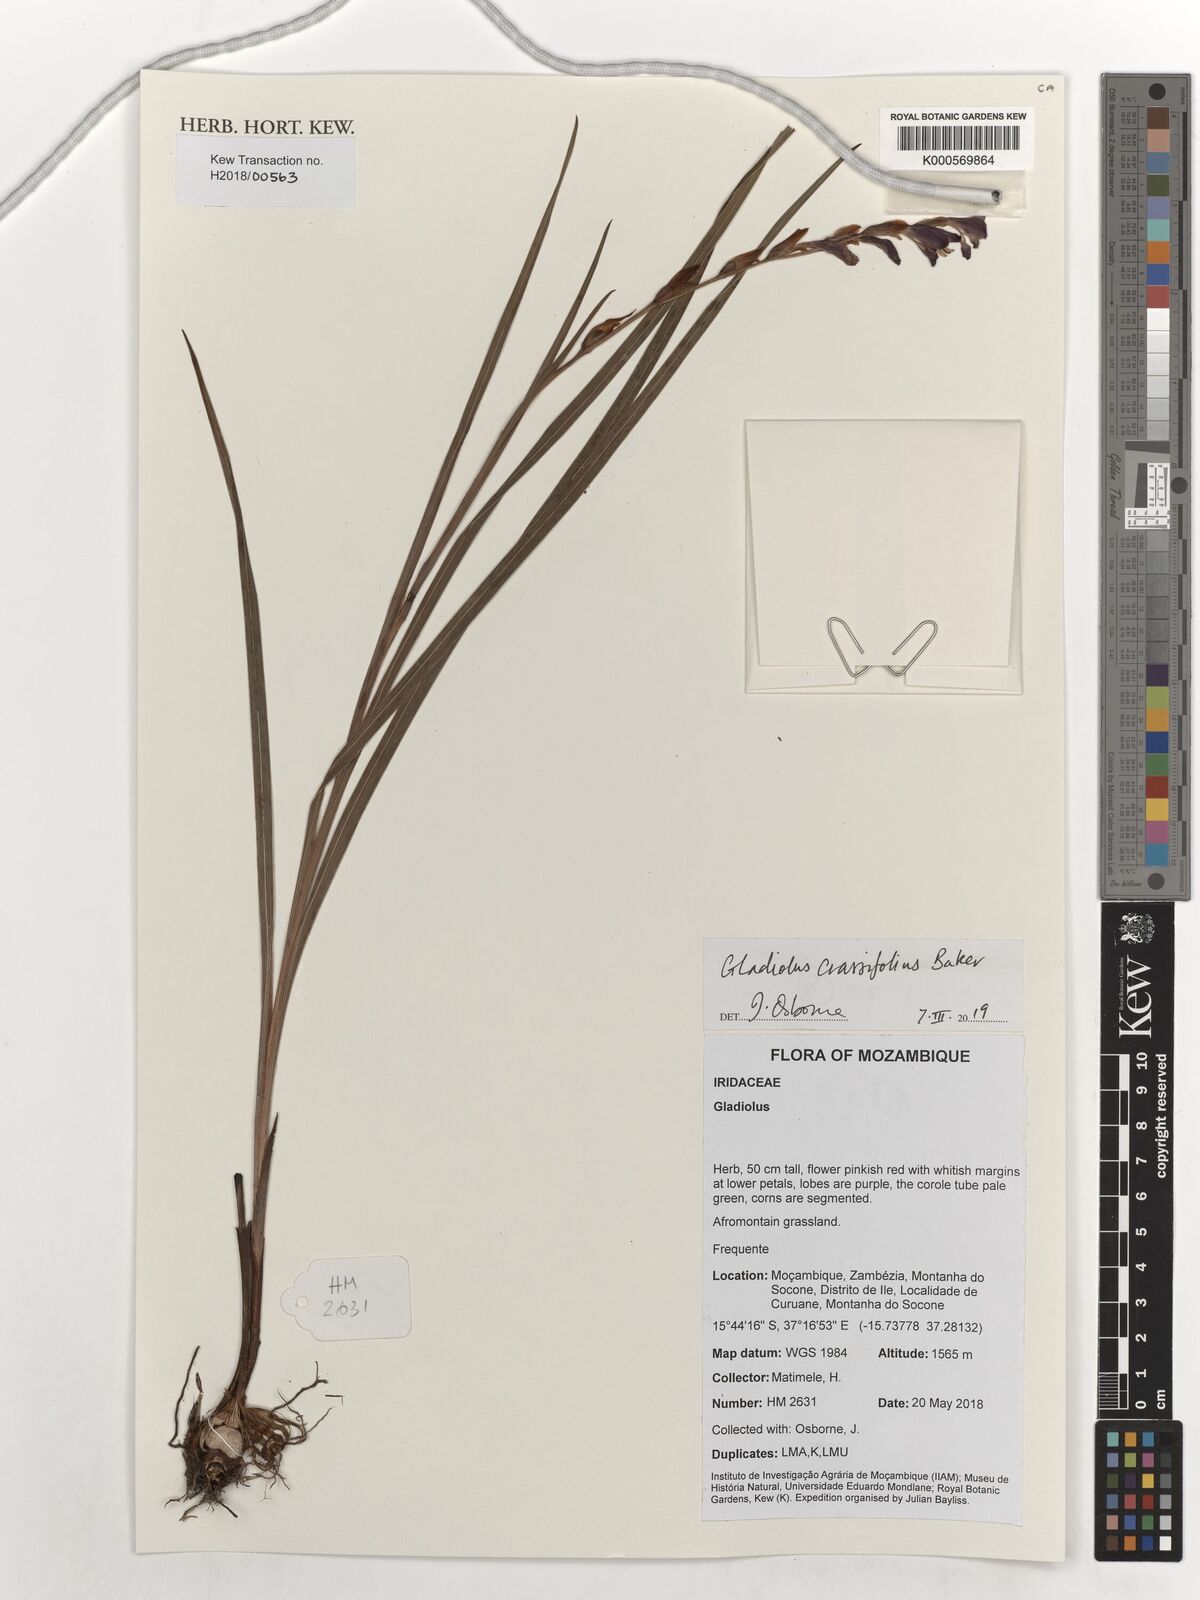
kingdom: Plantae
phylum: Tracheophyta
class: Liliopsida
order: Asparagales
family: Iridaceae
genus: Gladiolus
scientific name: Gladiolus crassifolius
